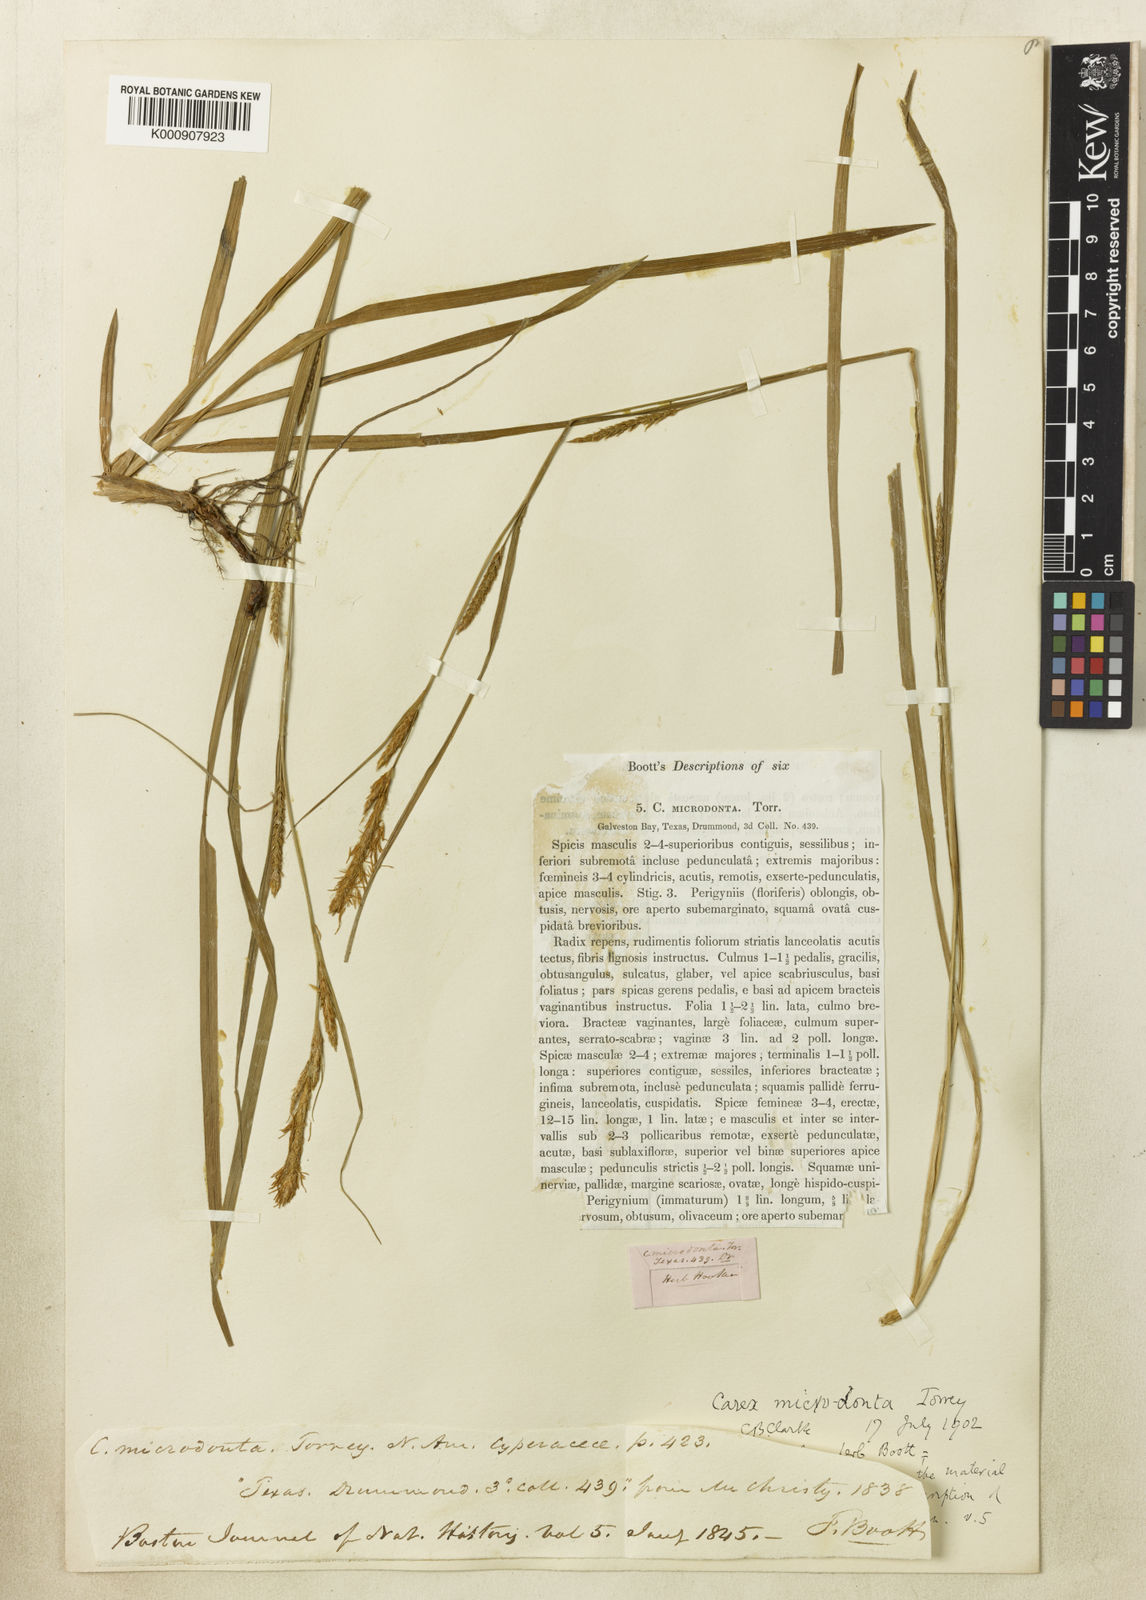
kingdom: Plantae
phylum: Tracheophyta
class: Liliopsida
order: Poales
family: Cyperaceae
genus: Carex
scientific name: Carex microdonta
